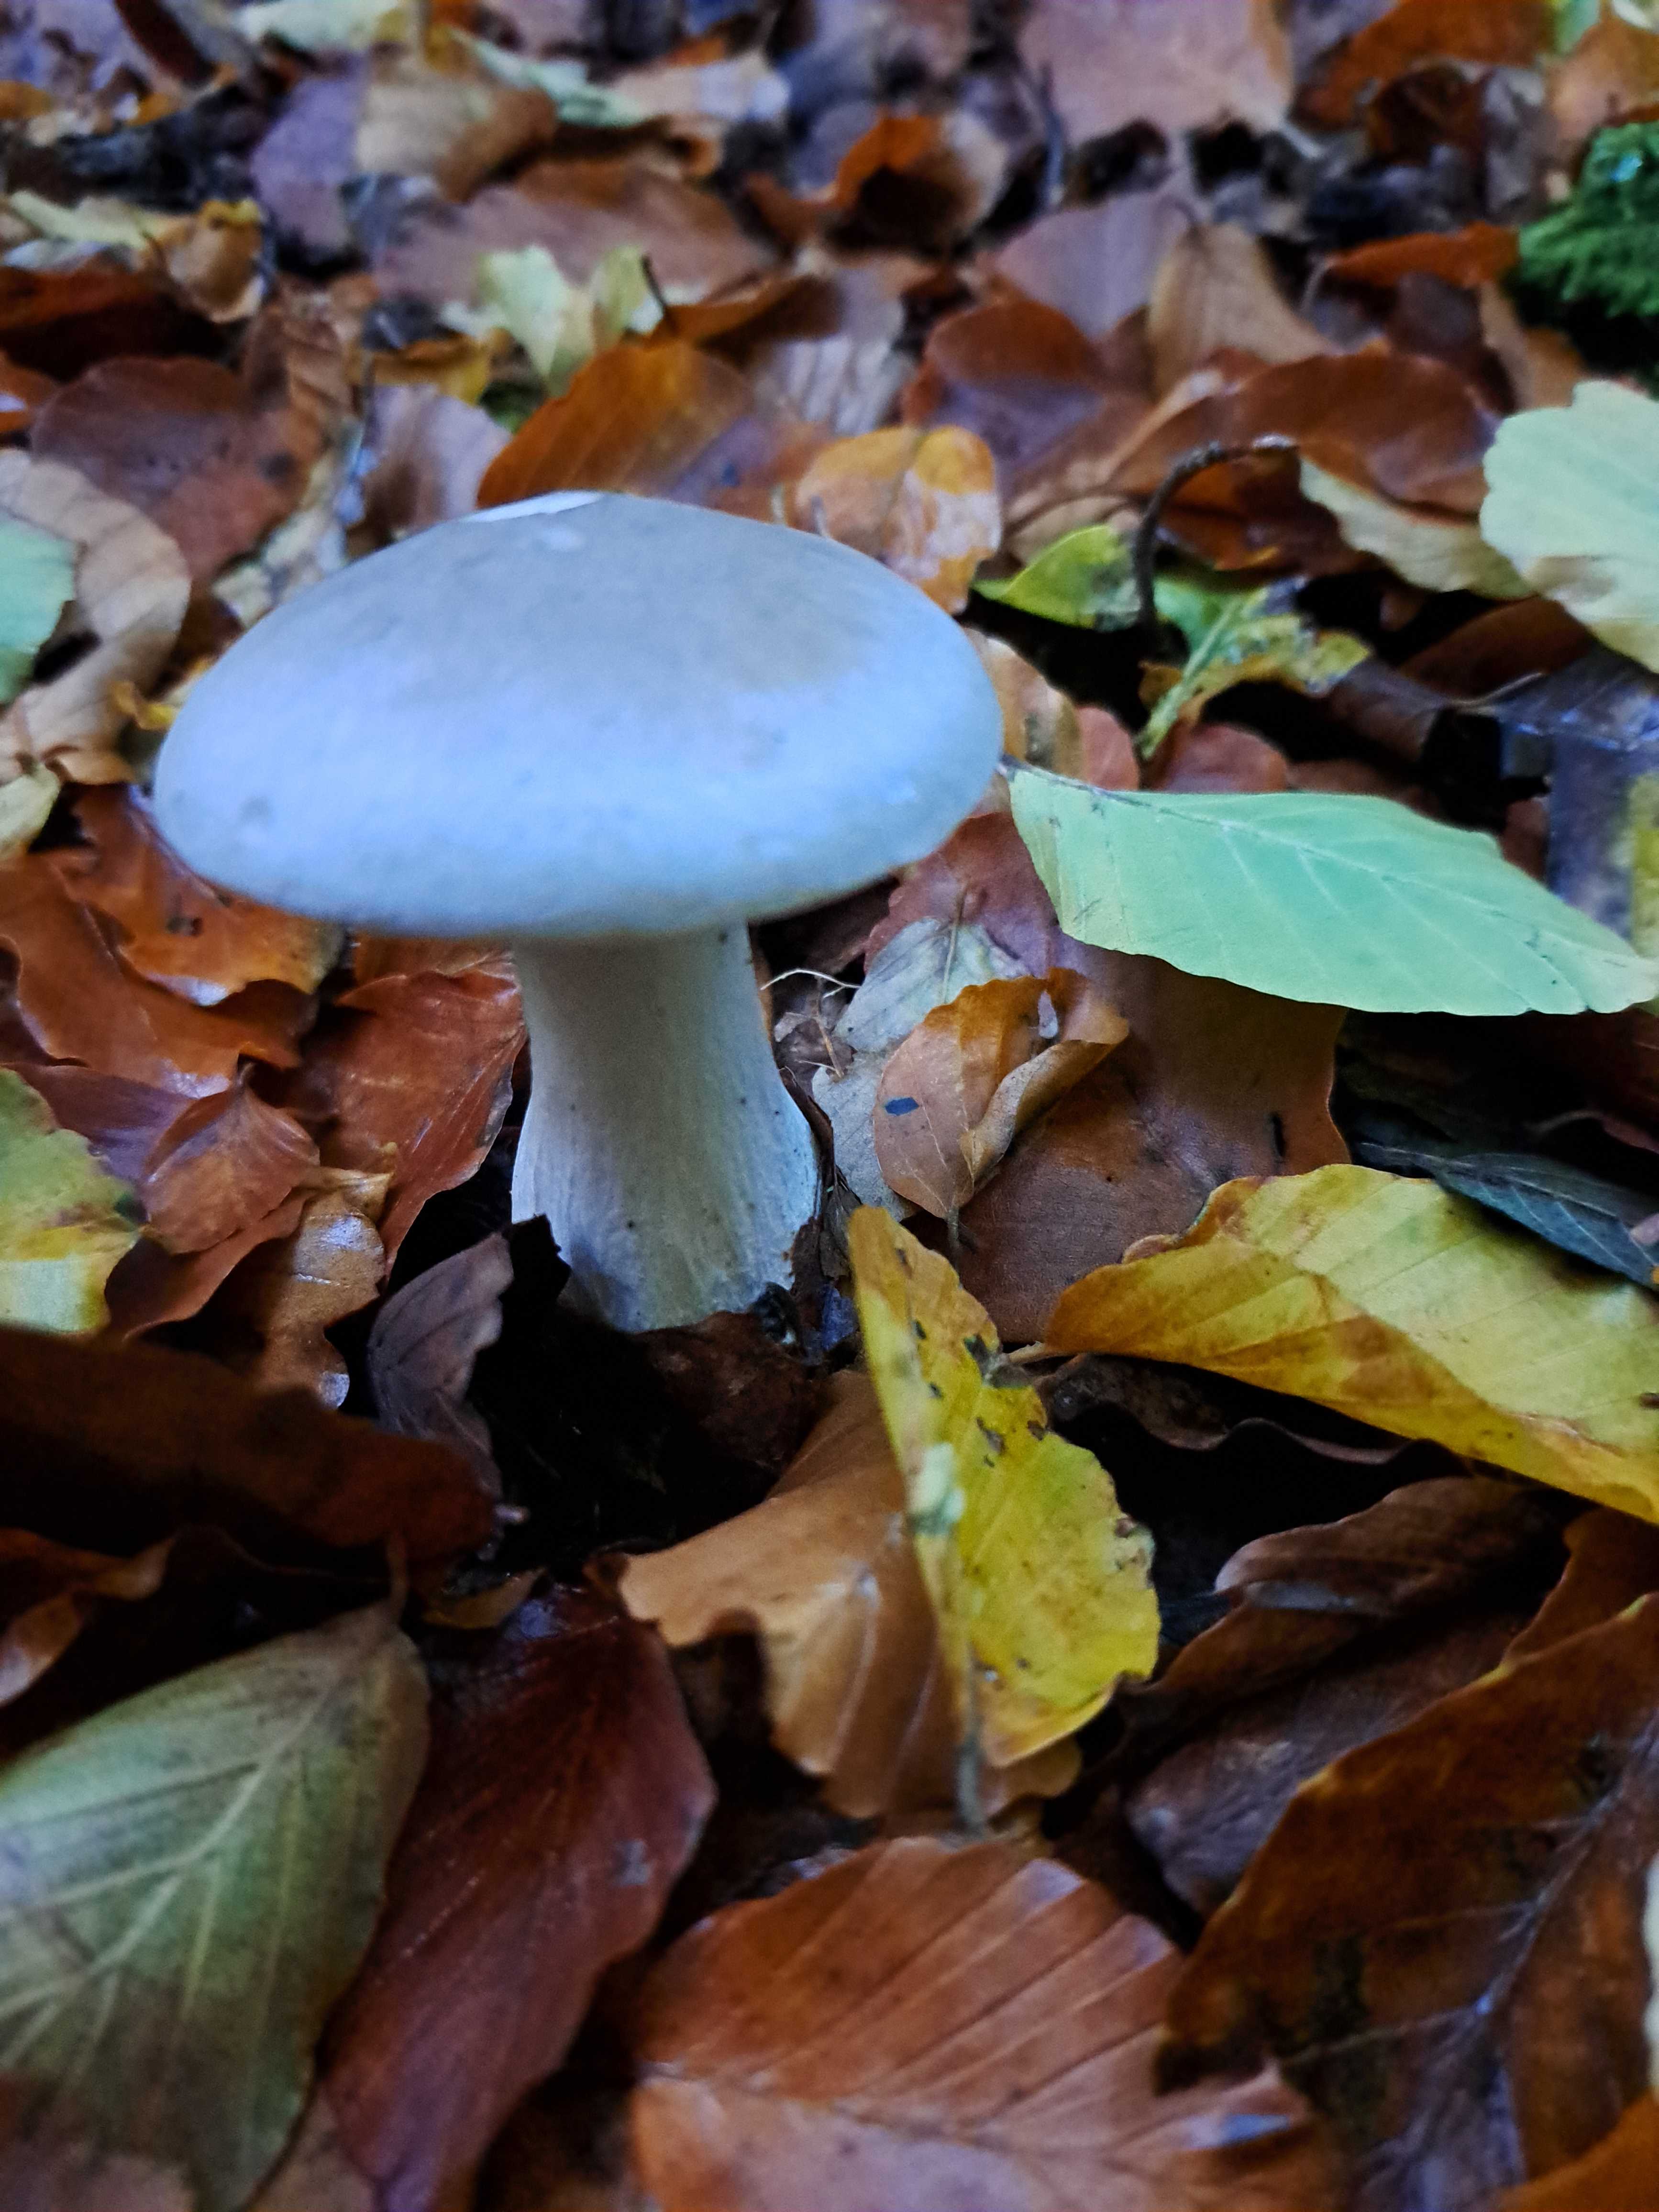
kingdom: Fungi
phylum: Basidiomycota
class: Agaricomycetes
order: Agaricales
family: Tricholomataceae
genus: Clitocybe
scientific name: Clitocybe nebularis
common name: tåge-tragthat
